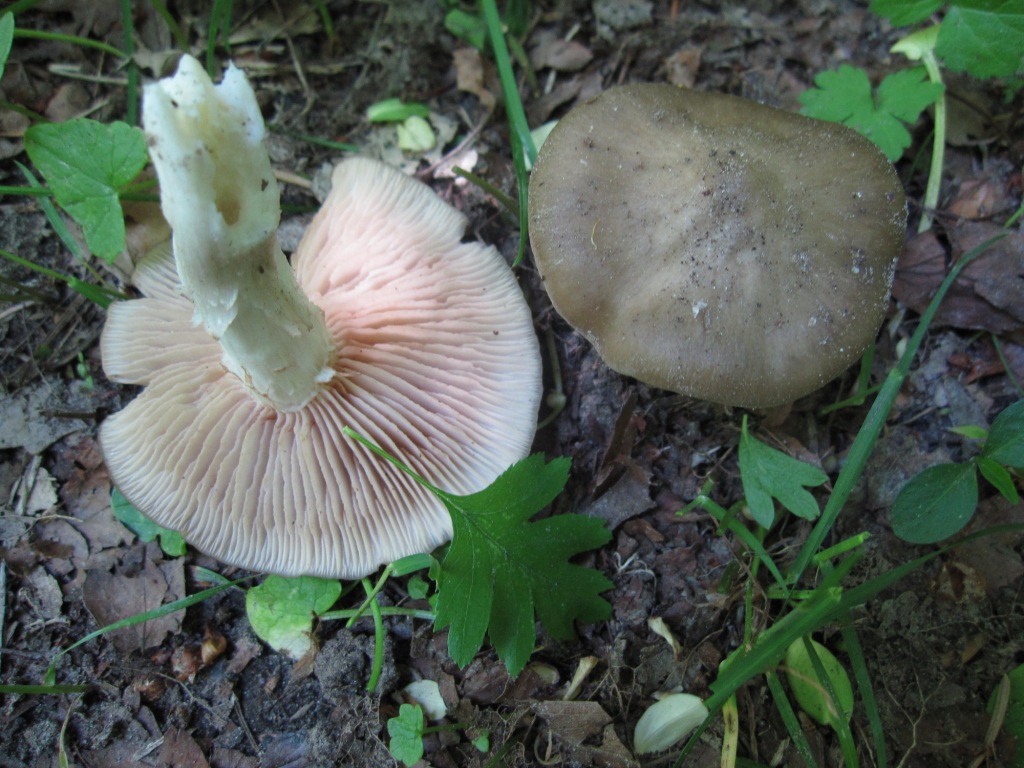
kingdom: Fungi
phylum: Basidiomycota
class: Agaricomycetes
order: Agaricales
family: Entolomataceae
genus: Entoloma
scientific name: Entoloma clypeatum
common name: flammet rødblad
